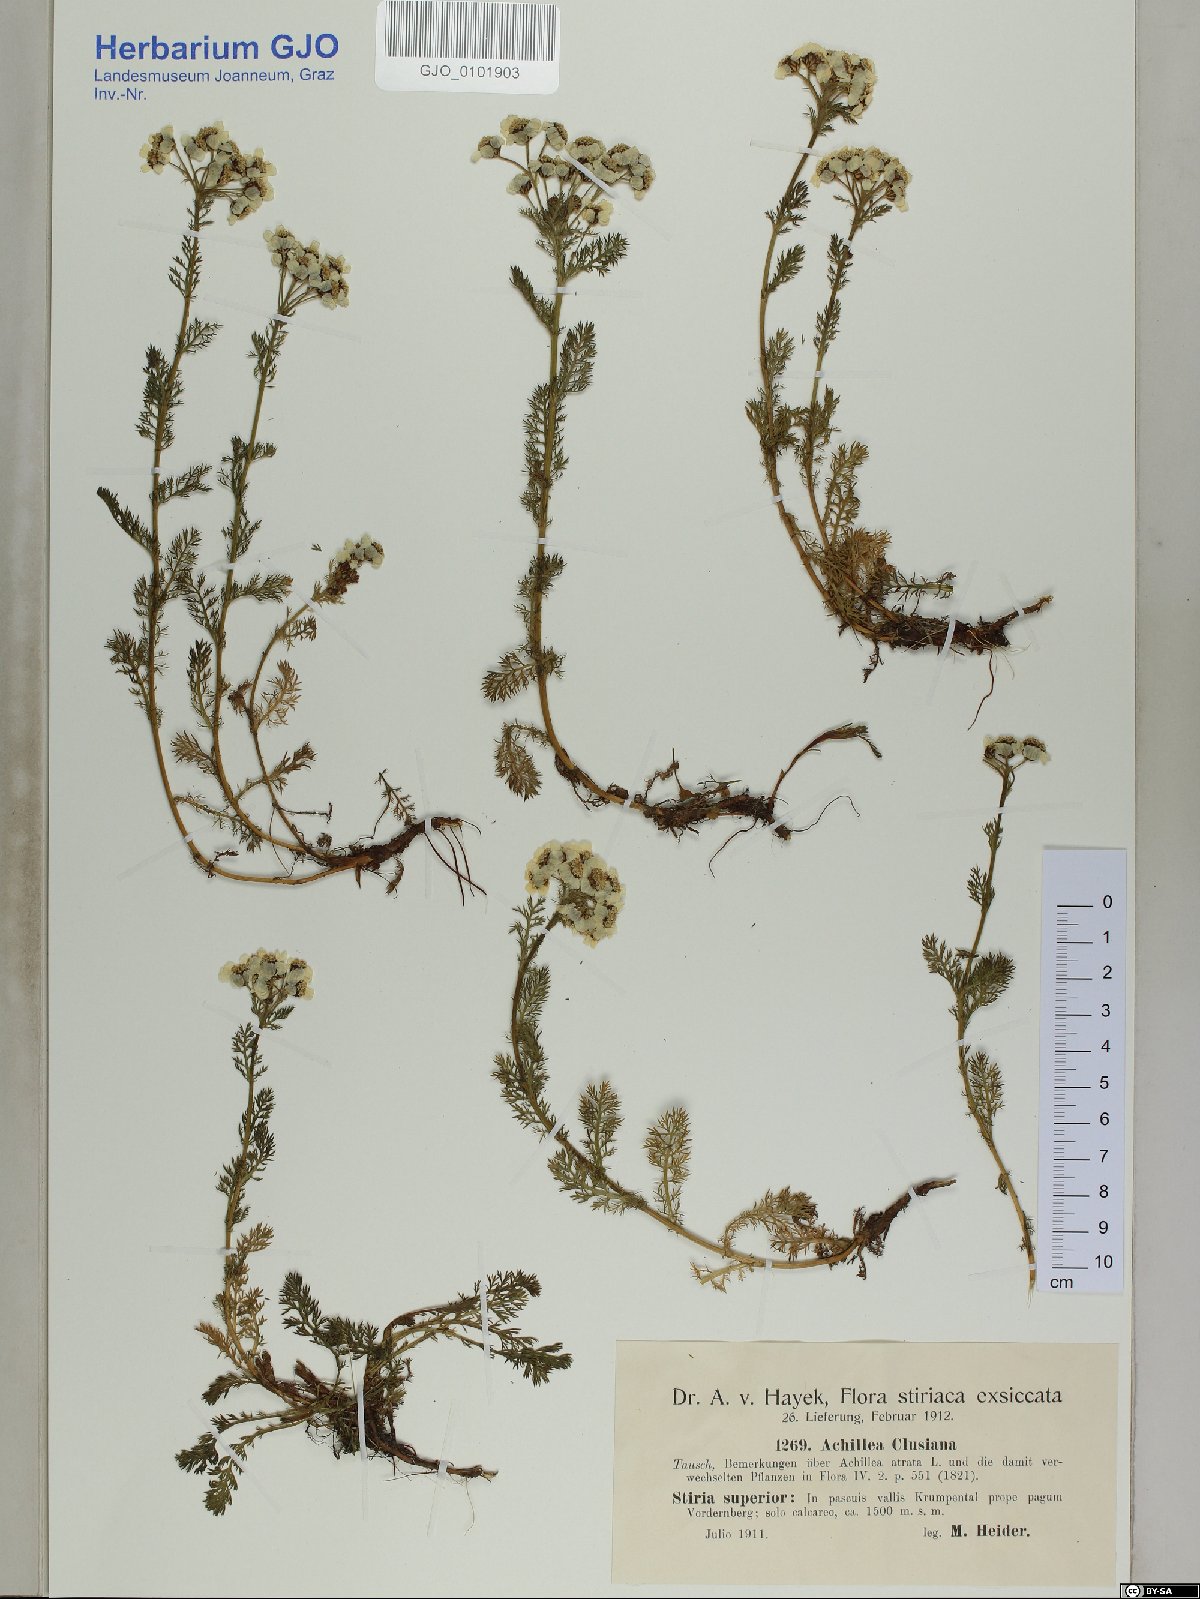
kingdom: Plantae
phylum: Tracheophyta
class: Magnoliopsida
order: Asterales
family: Asteraceae
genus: Achillea
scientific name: Achillea clusiana
